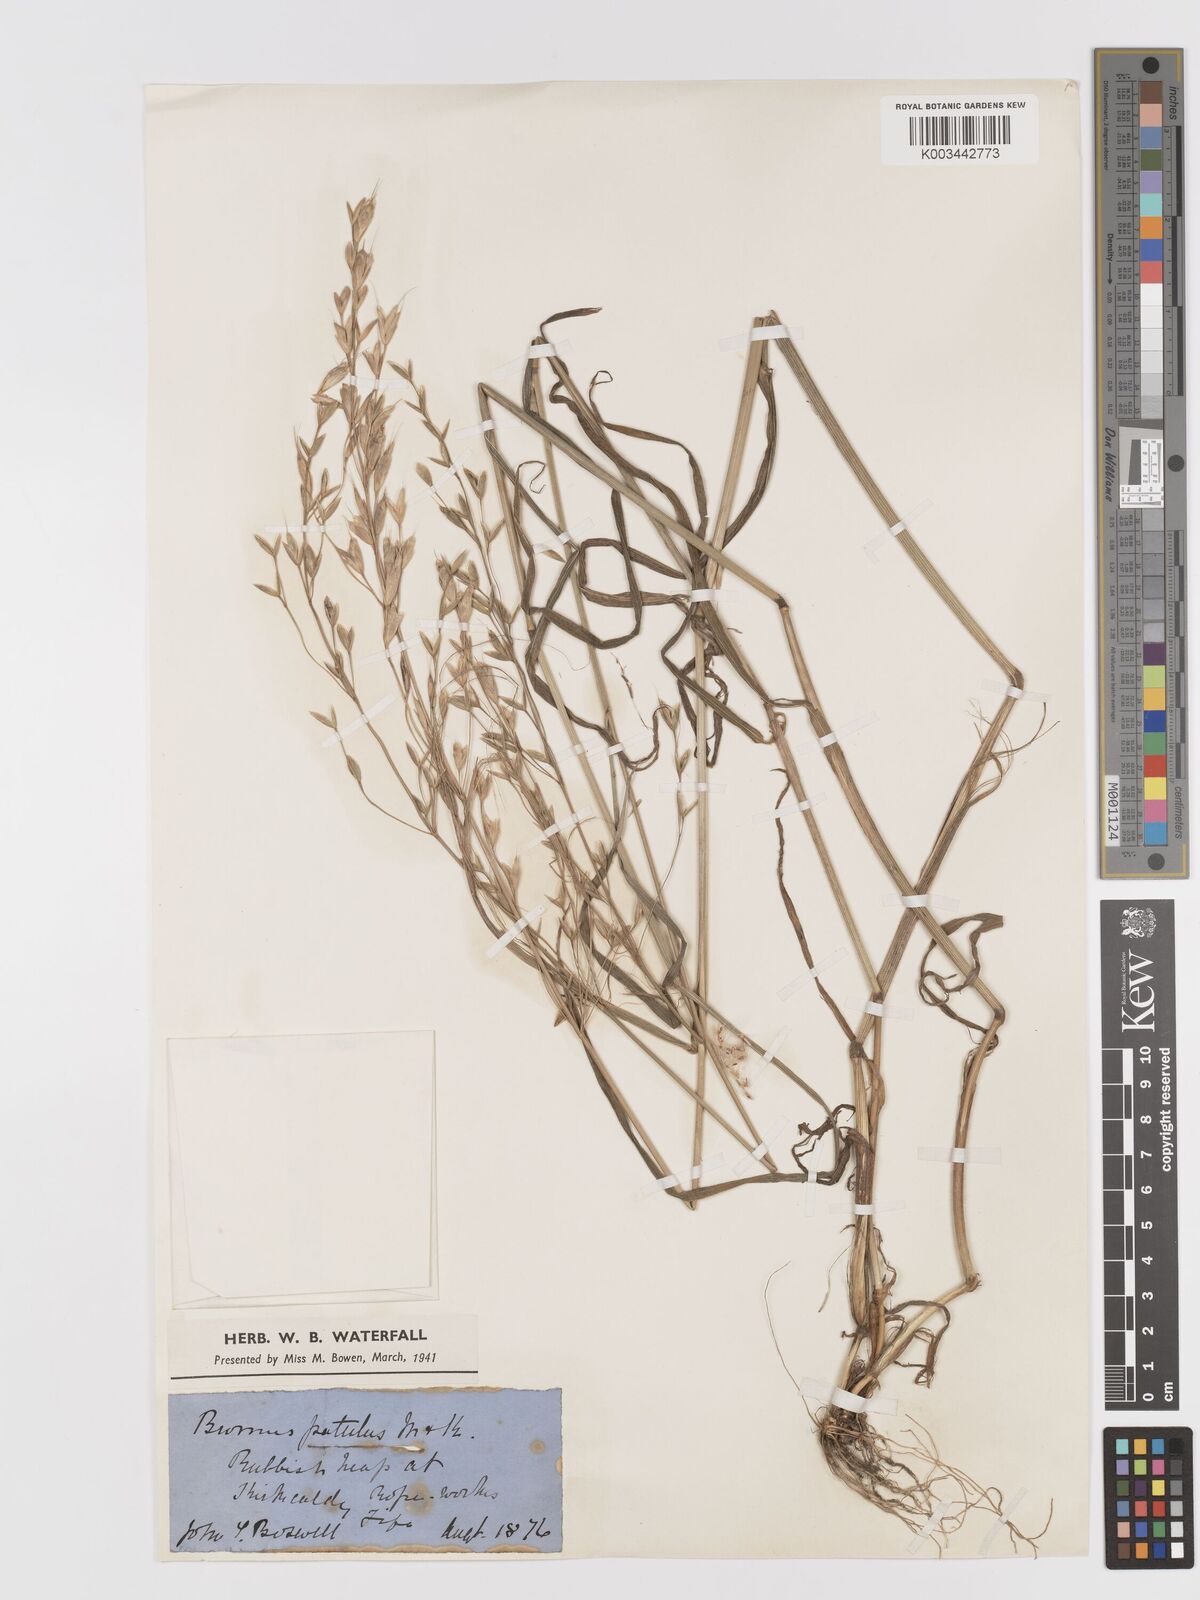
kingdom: Plantae
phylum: Tracheophyta
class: Liliopsida
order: Poales
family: Poaceae
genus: Bromus
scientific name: Bromus japonicus
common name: Japanese brome
